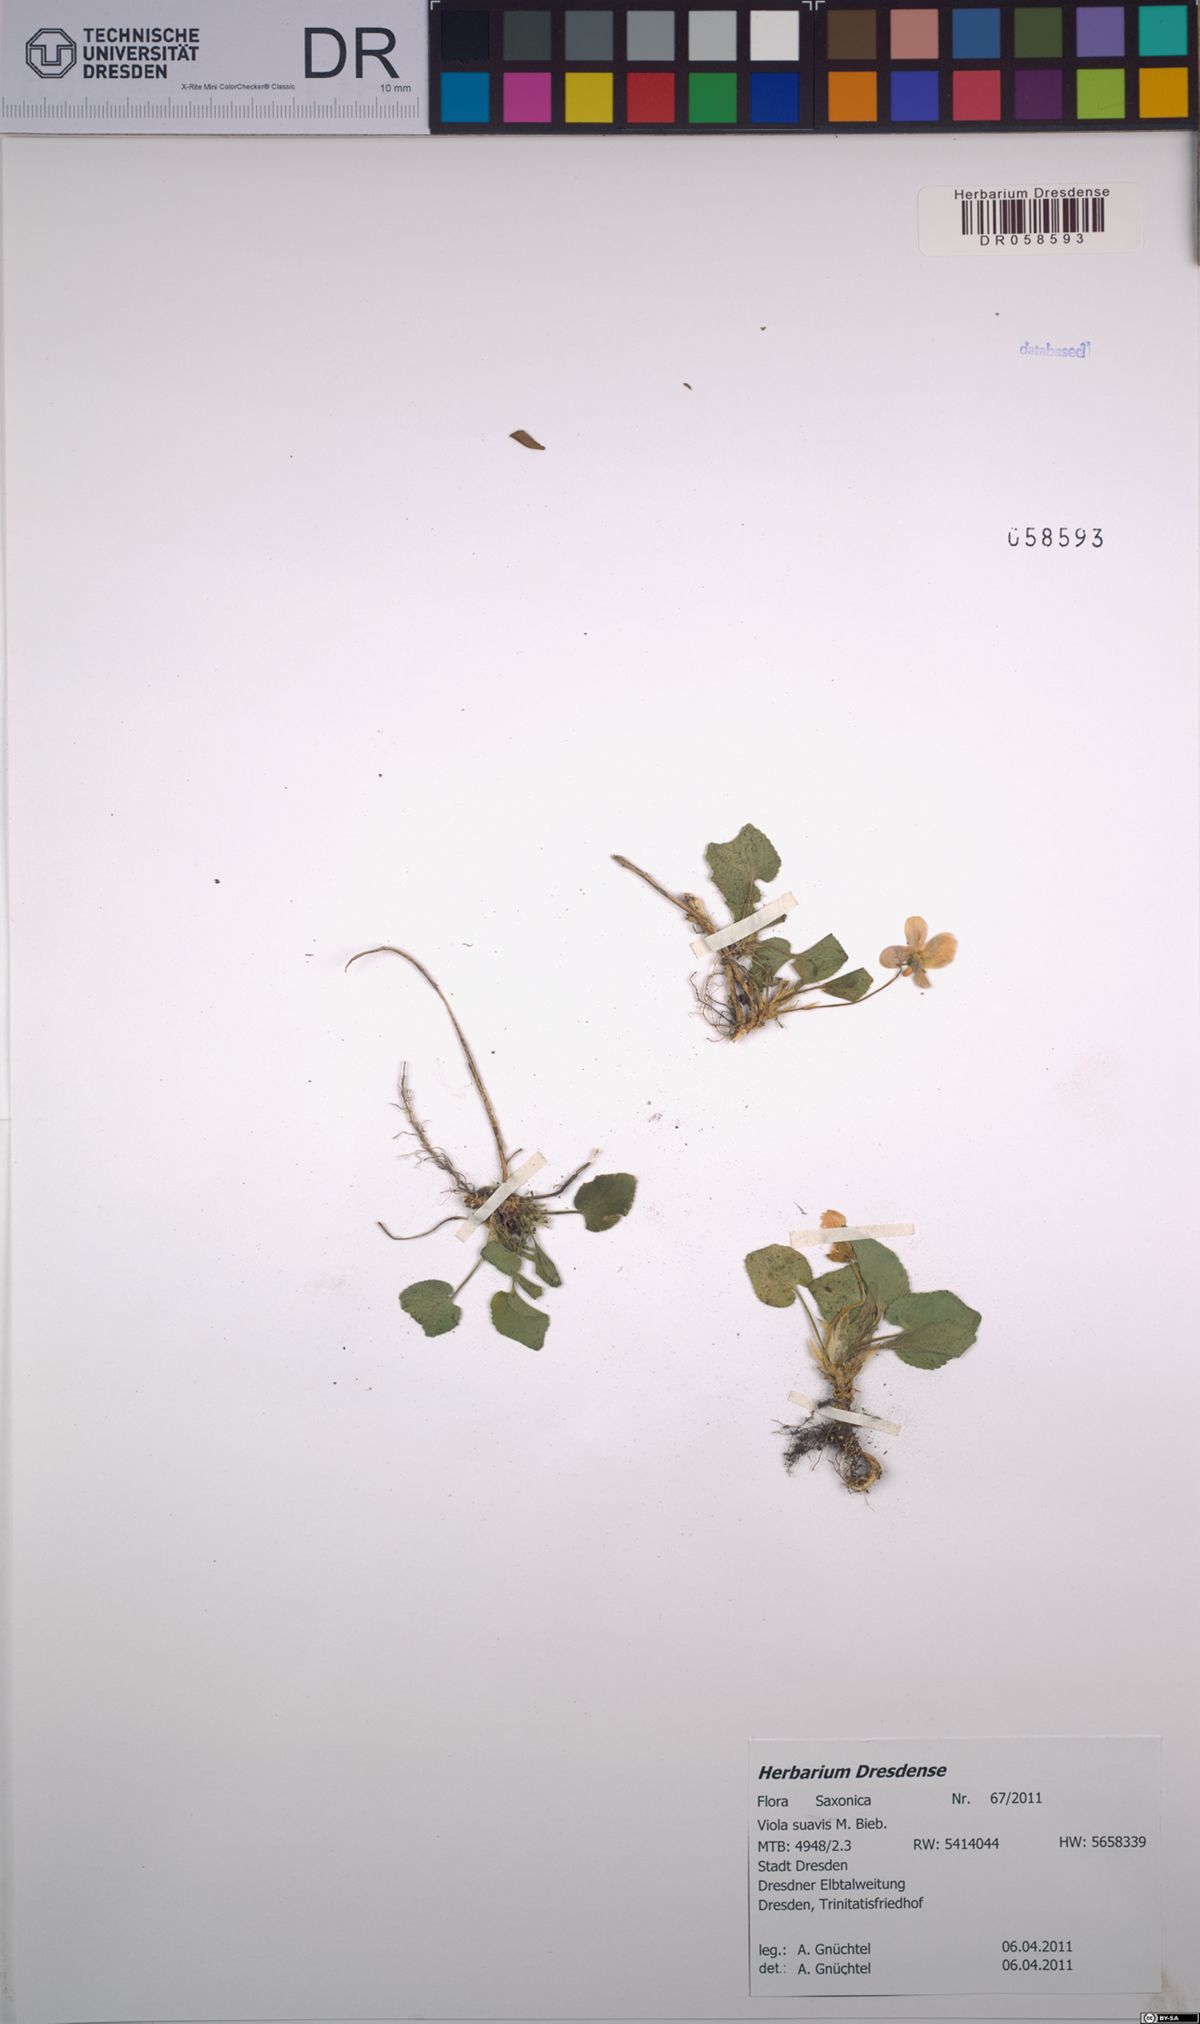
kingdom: Plantae
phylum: Tracheophyta
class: Magnoliopsida
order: Malpighiales
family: Violaceae
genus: Viola
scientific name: Viola suavis
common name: Russian violet
